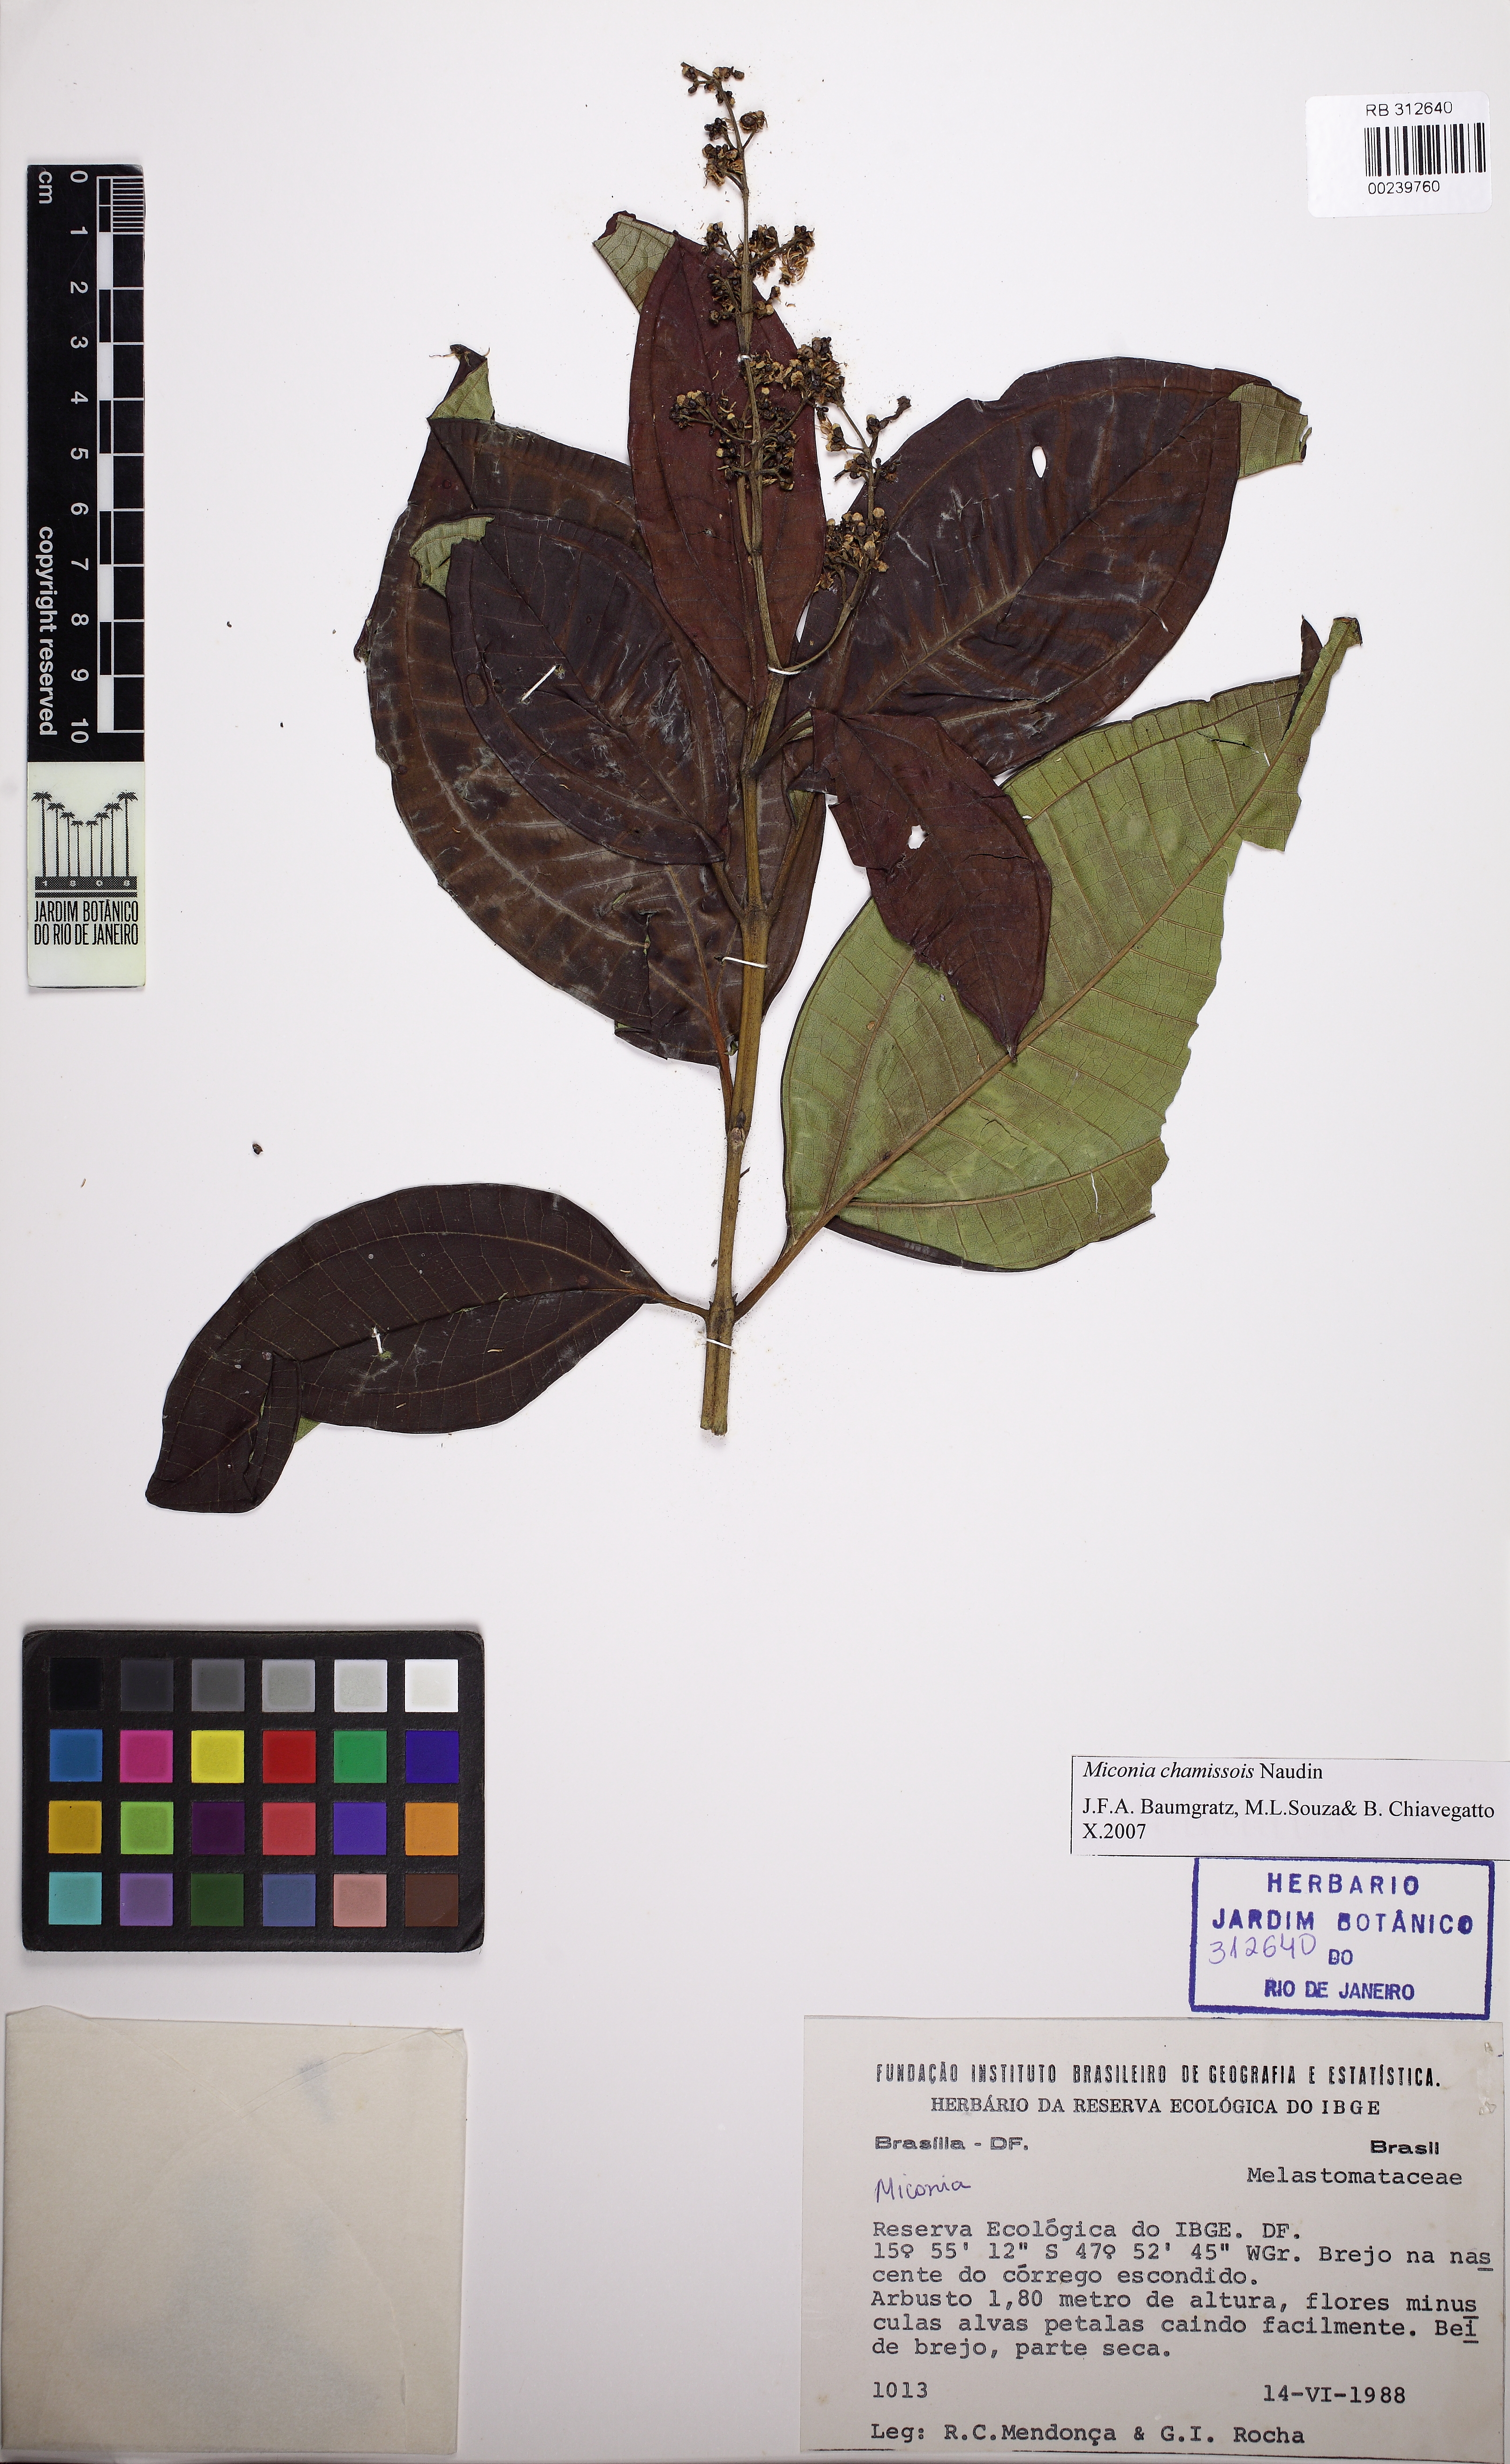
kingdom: Plantae
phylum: Tracheophyta
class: Magnoliopsida
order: Myrtales
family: Melastomataceae
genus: Miconia
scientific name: Miconia chamissois
